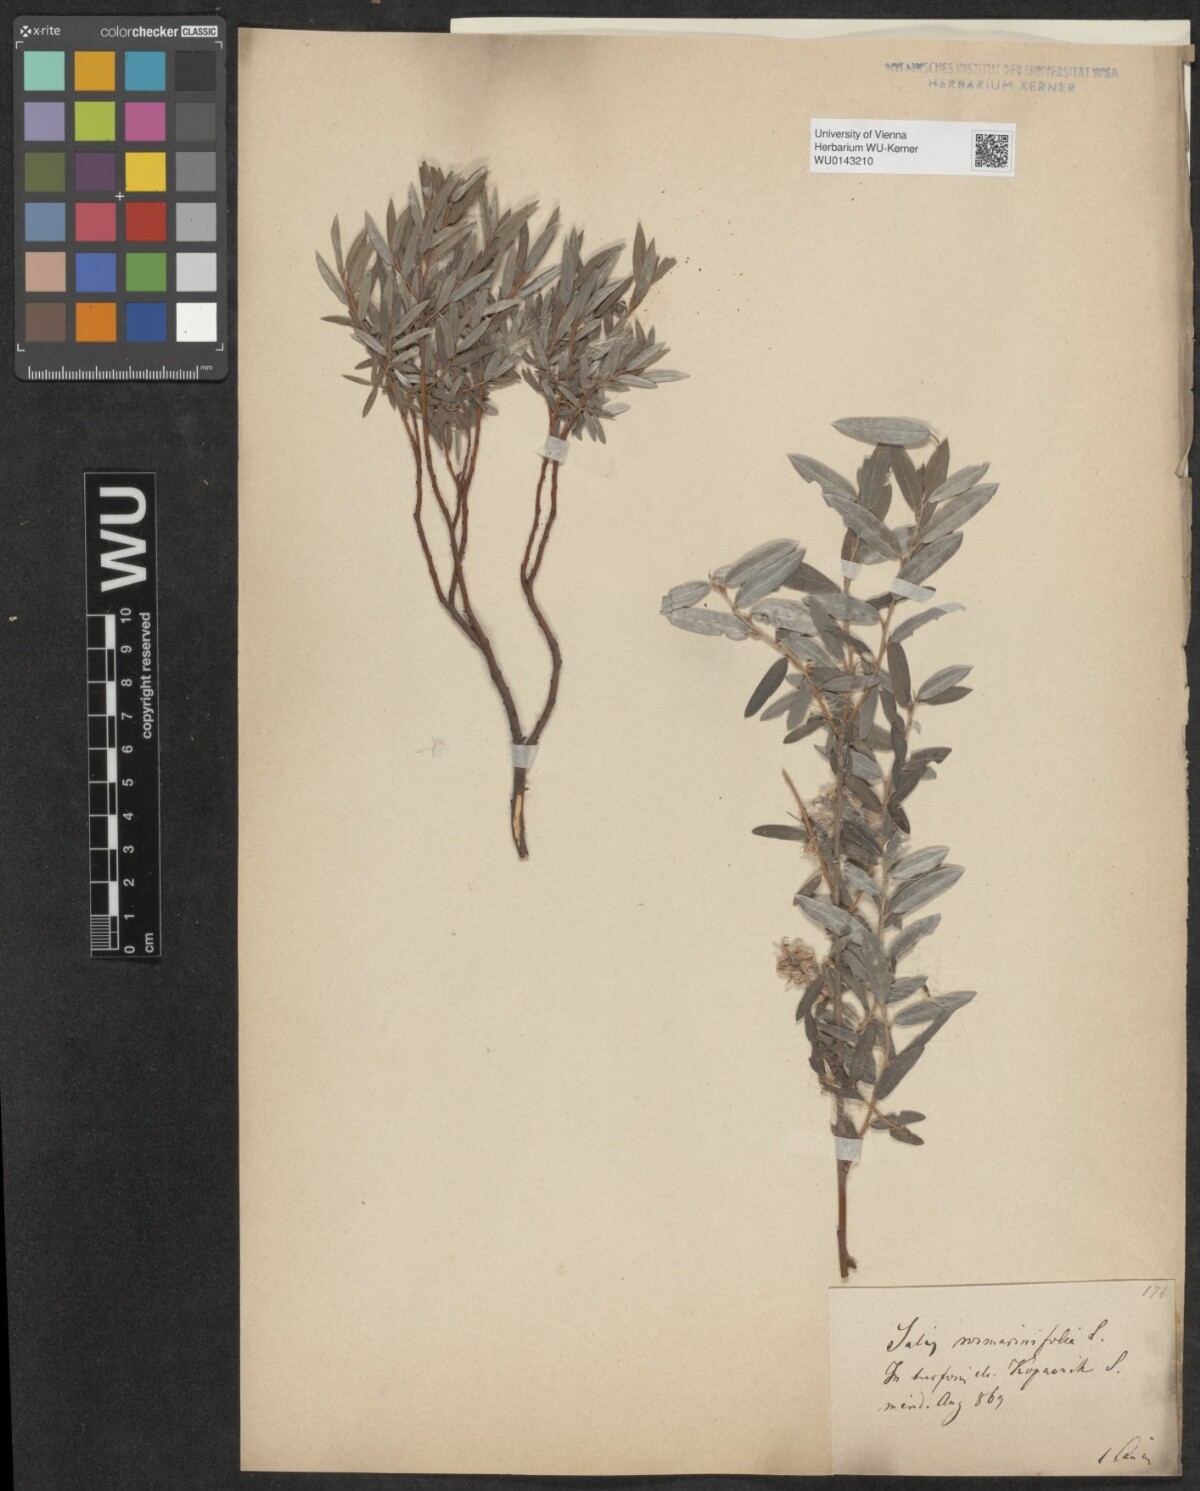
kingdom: Plantae
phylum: Tracheophyta
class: Magnoliopsida
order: Malpighiales
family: Salicaceae
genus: Salix
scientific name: Salix repens
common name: Creeping willow
